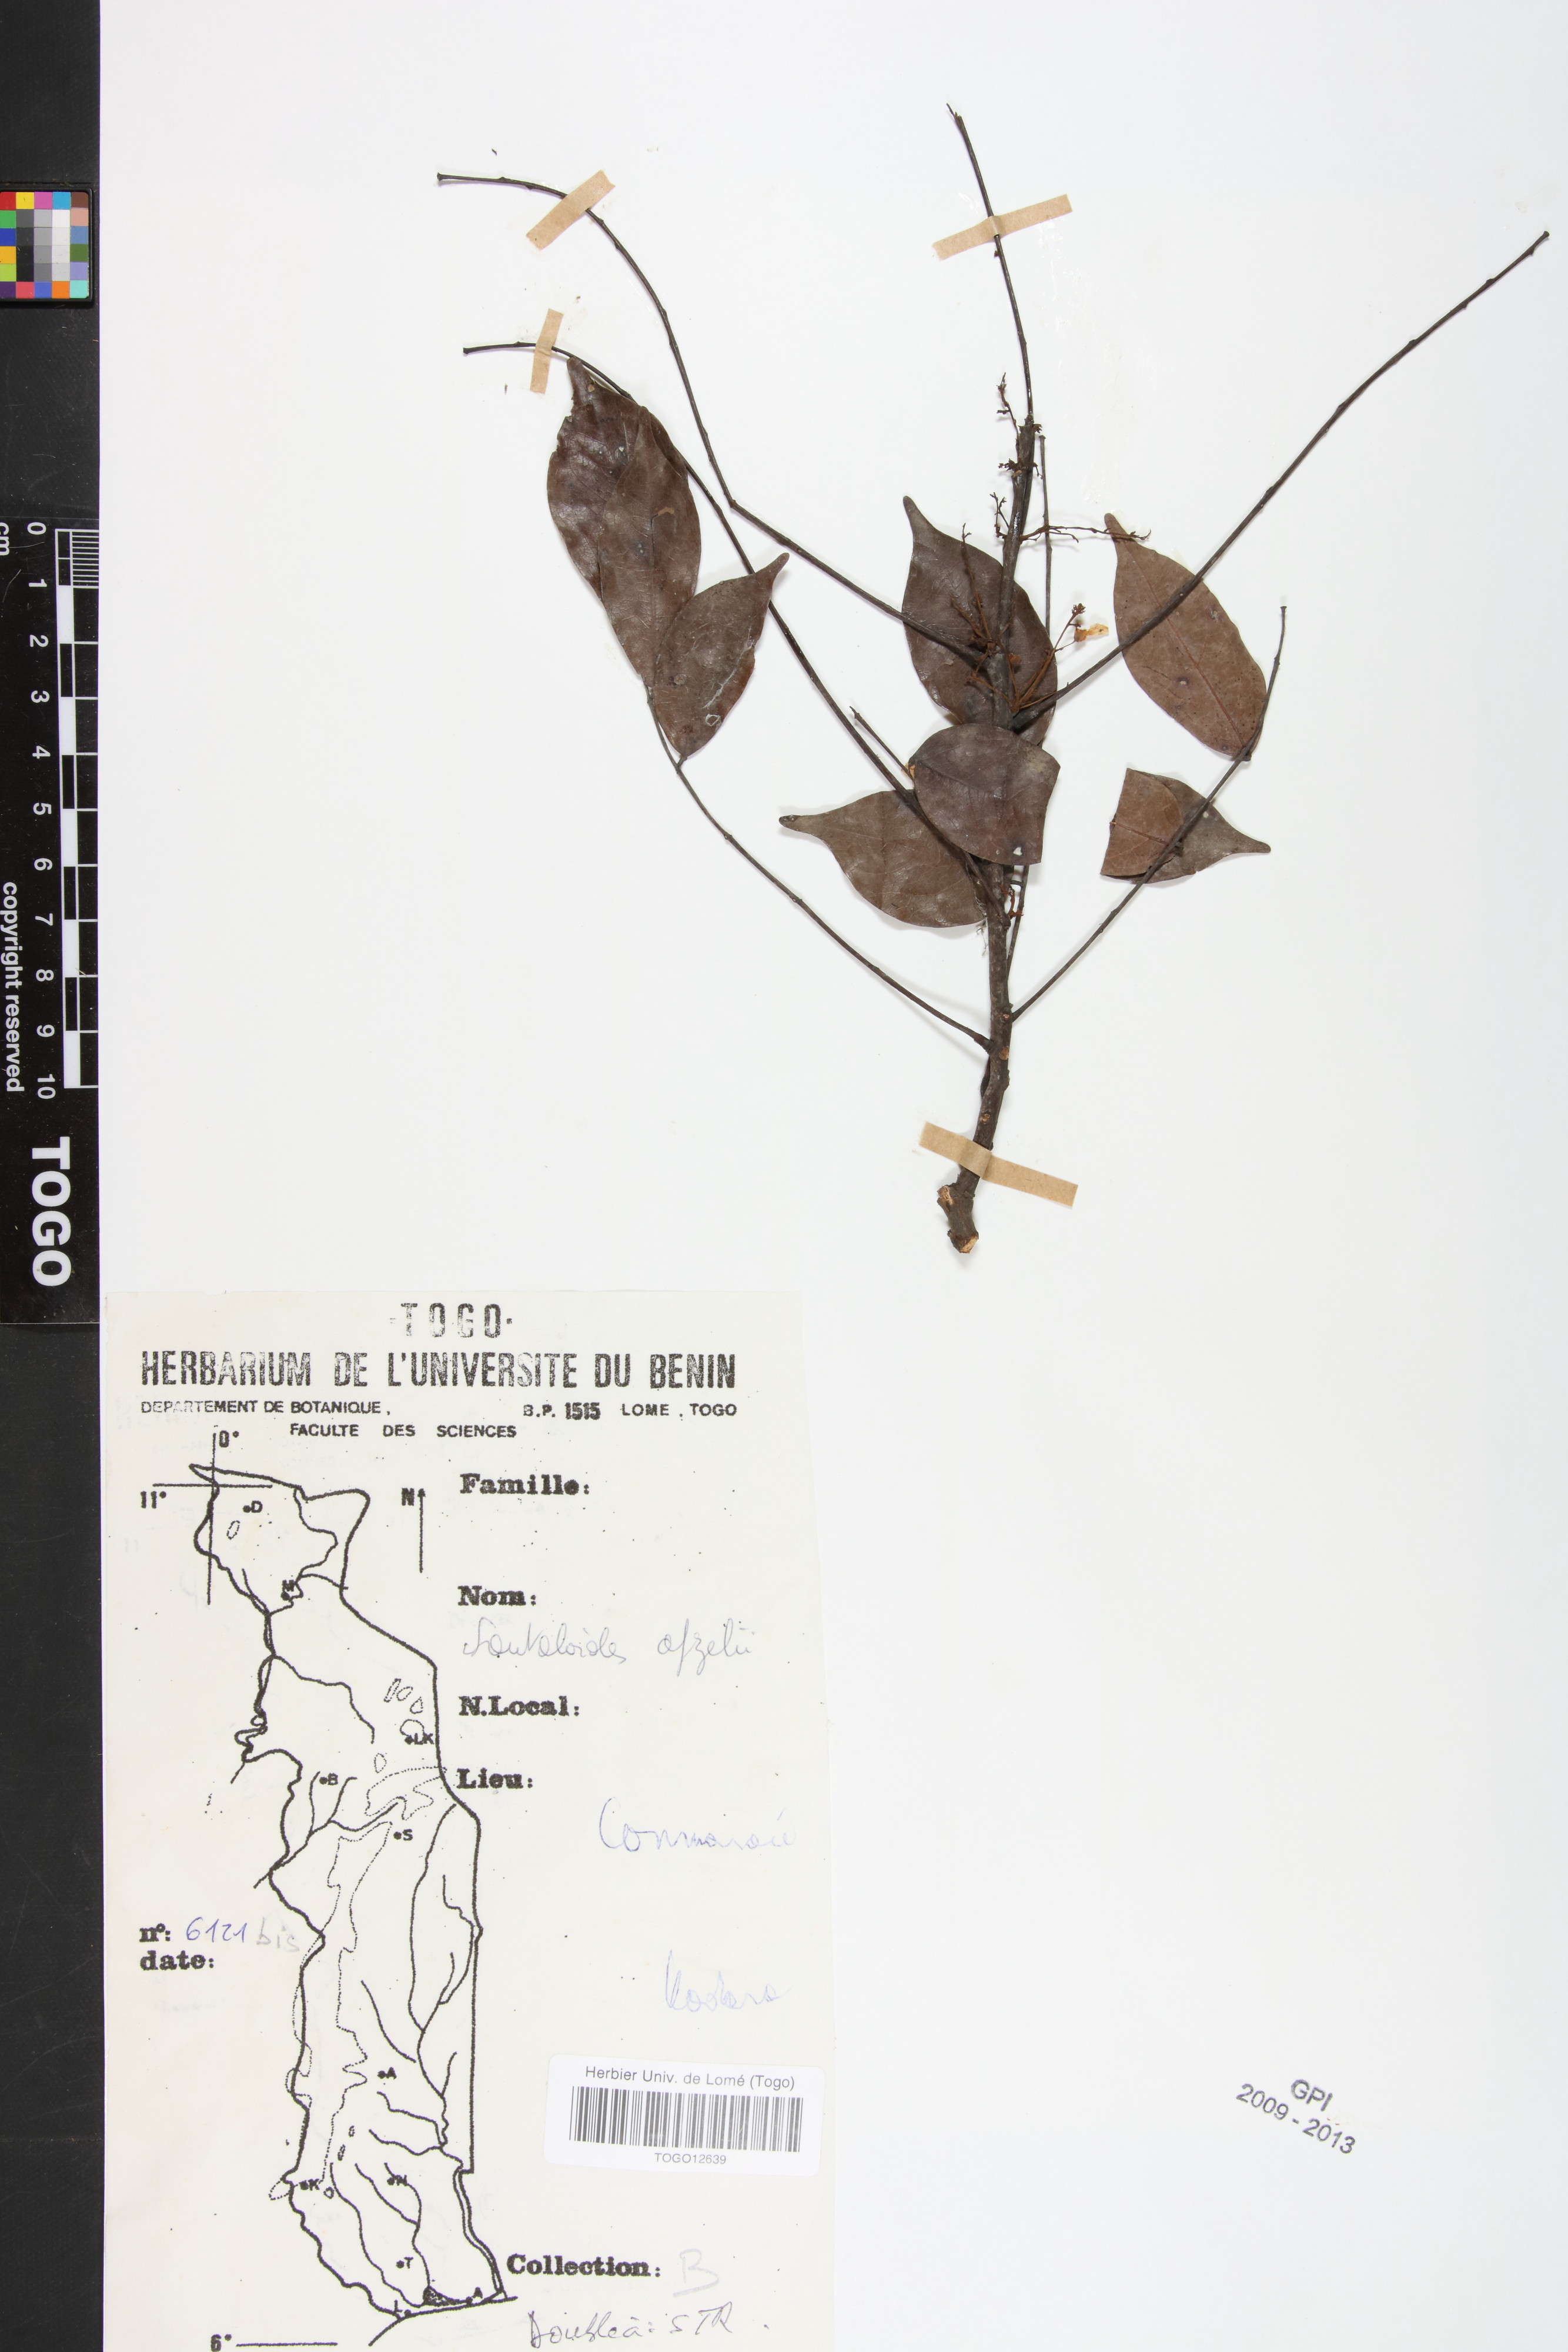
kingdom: Plantae
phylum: Tracheophyta
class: Magnoliopsida
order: Oxalidales
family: Connaraceae
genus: Rourea
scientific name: Rourea minor
